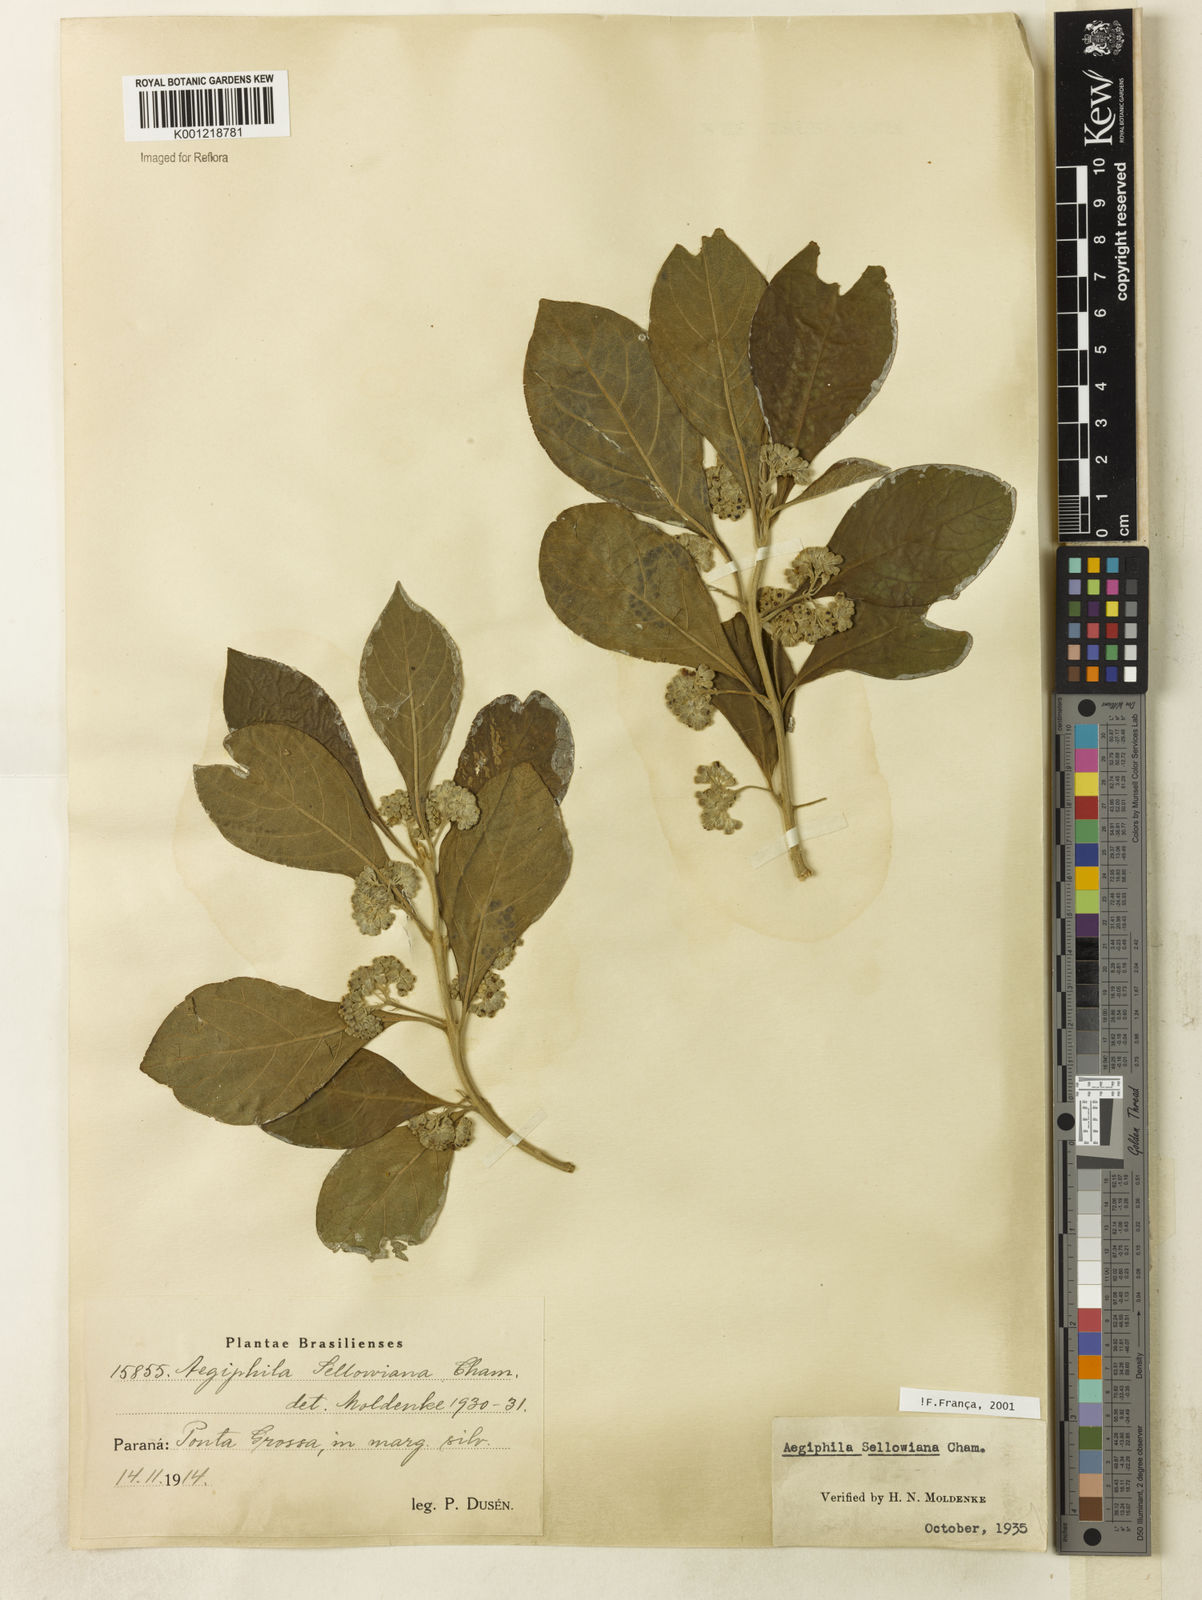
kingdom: Plantae
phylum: Tracheophyta
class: Magnoliopsida
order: Lamiales
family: Lamiaceae
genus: Aegiphila
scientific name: Aegiphila verticillata
